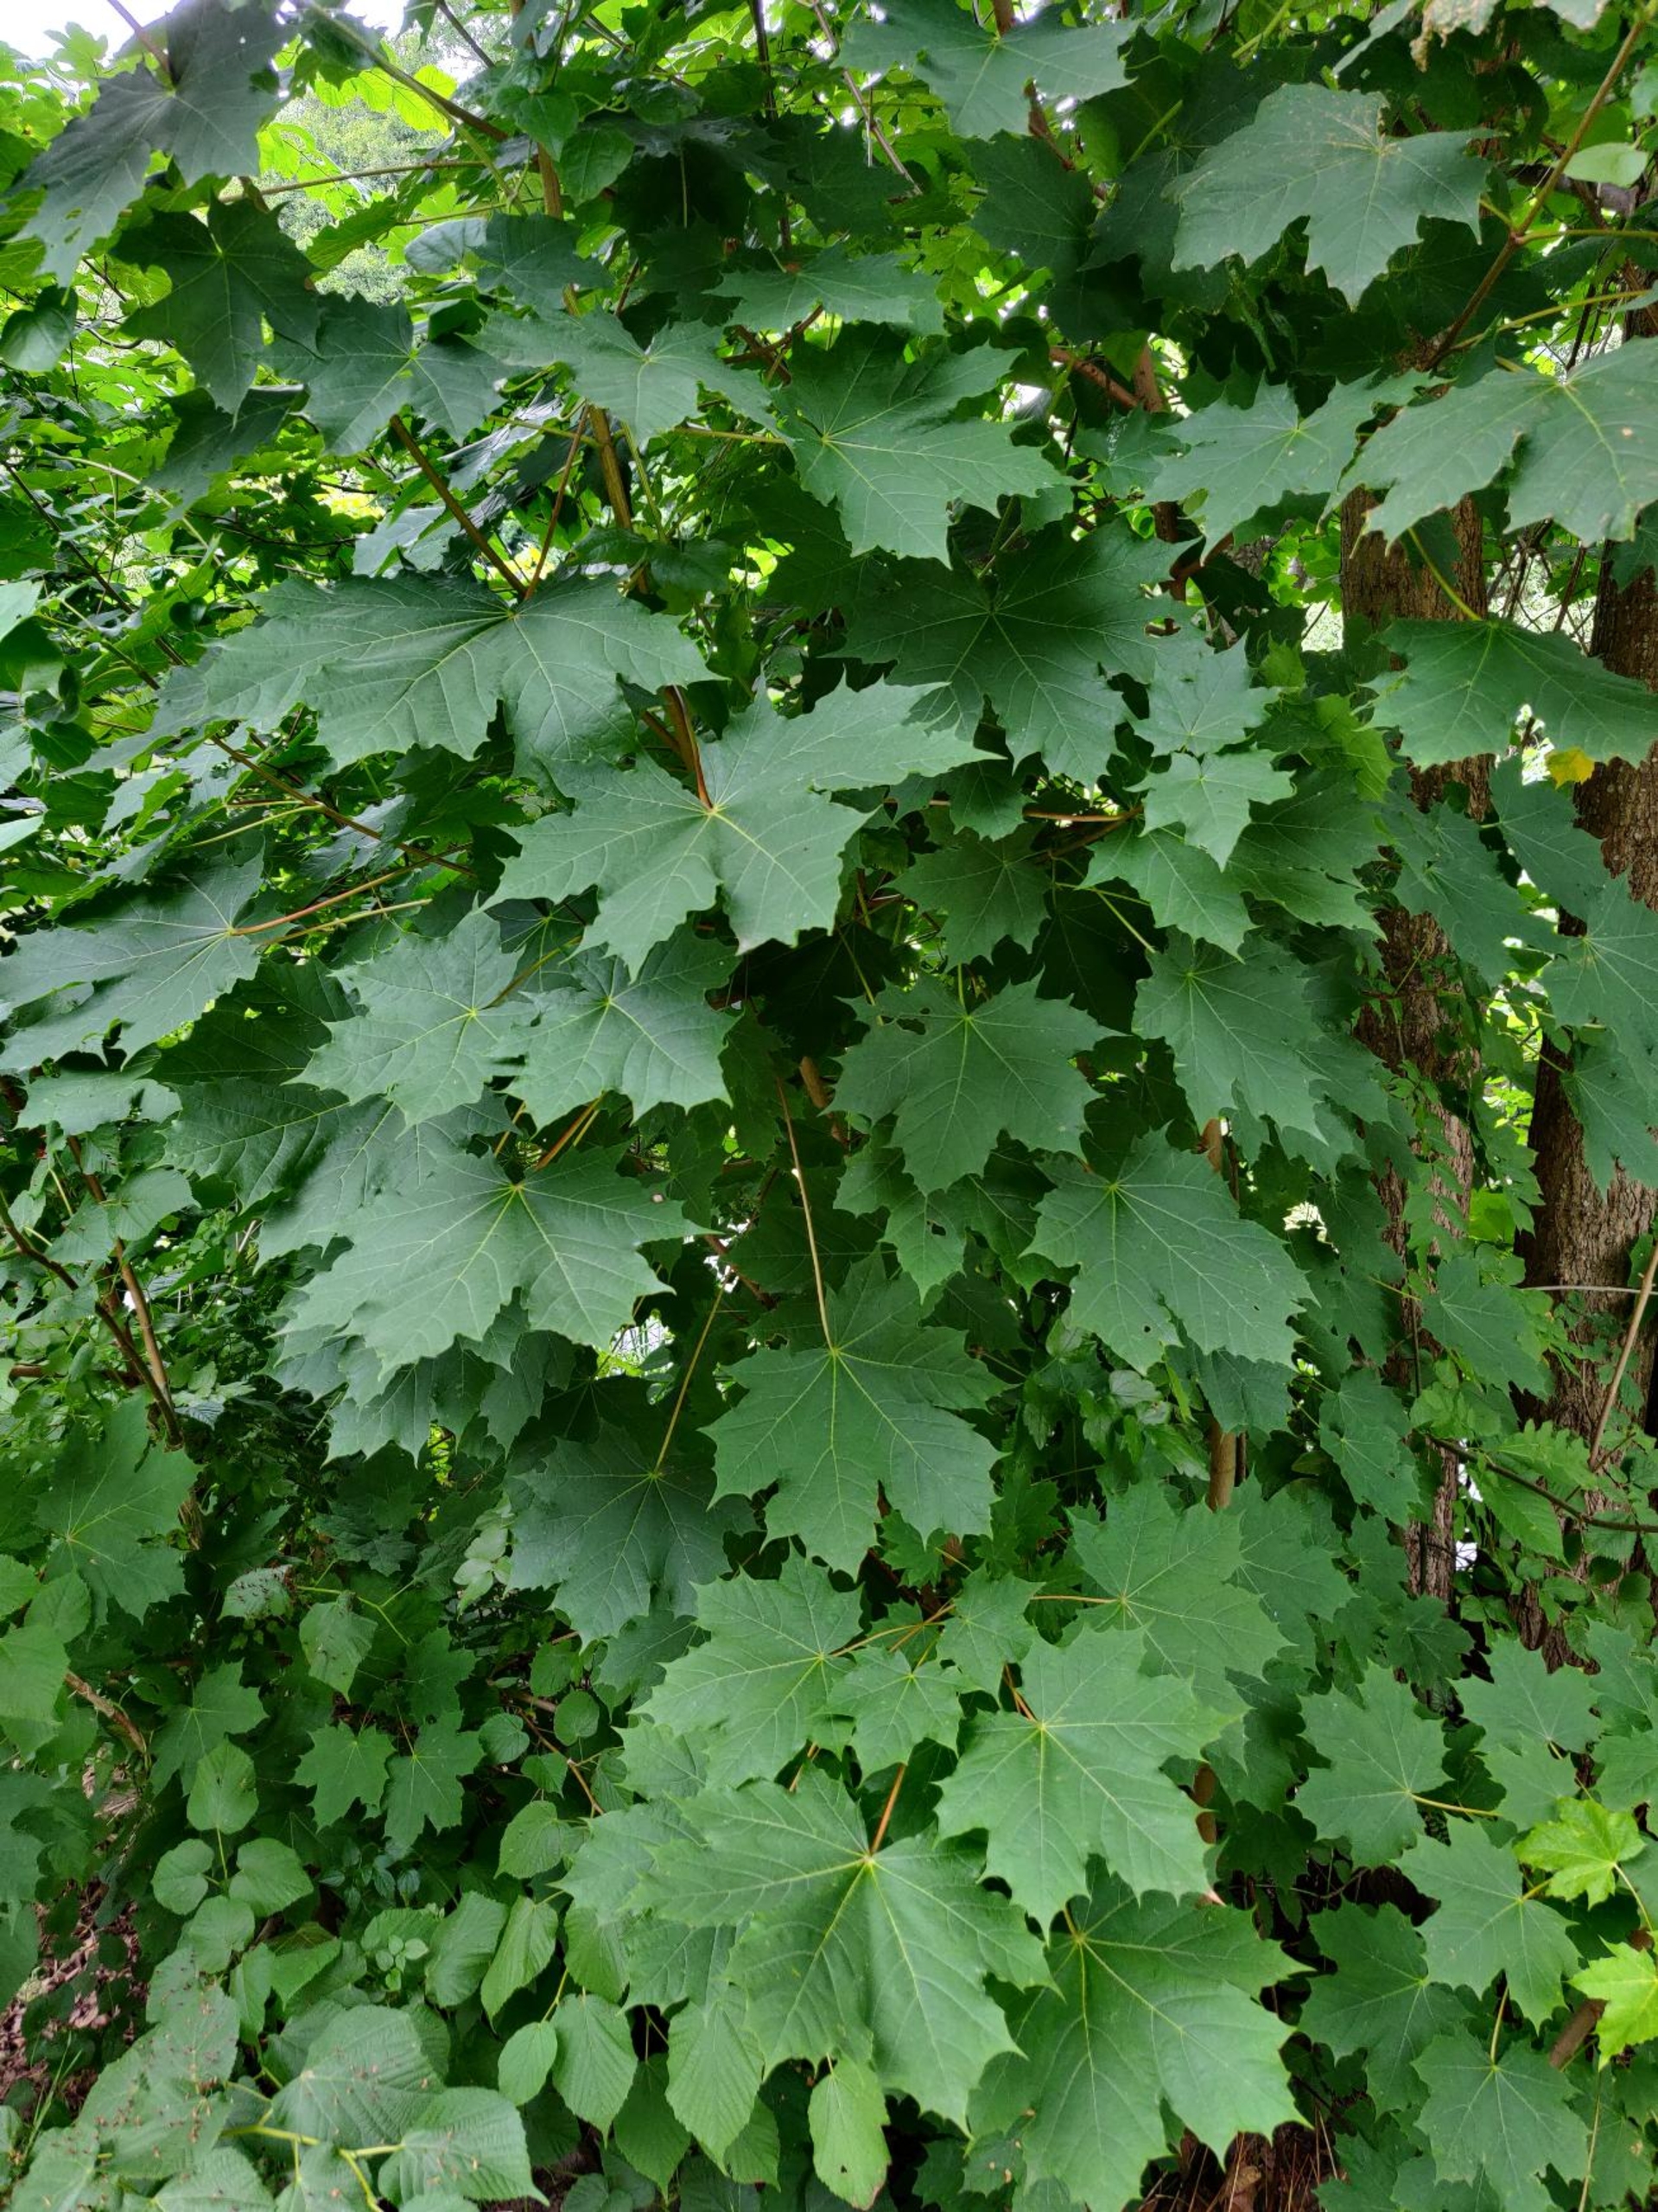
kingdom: Plantae
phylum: Tracheophyta
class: Magnoliopsida
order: Sapindales
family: Sapindaceae
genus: Acer
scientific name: Acer platanoides
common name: Spids-løn
